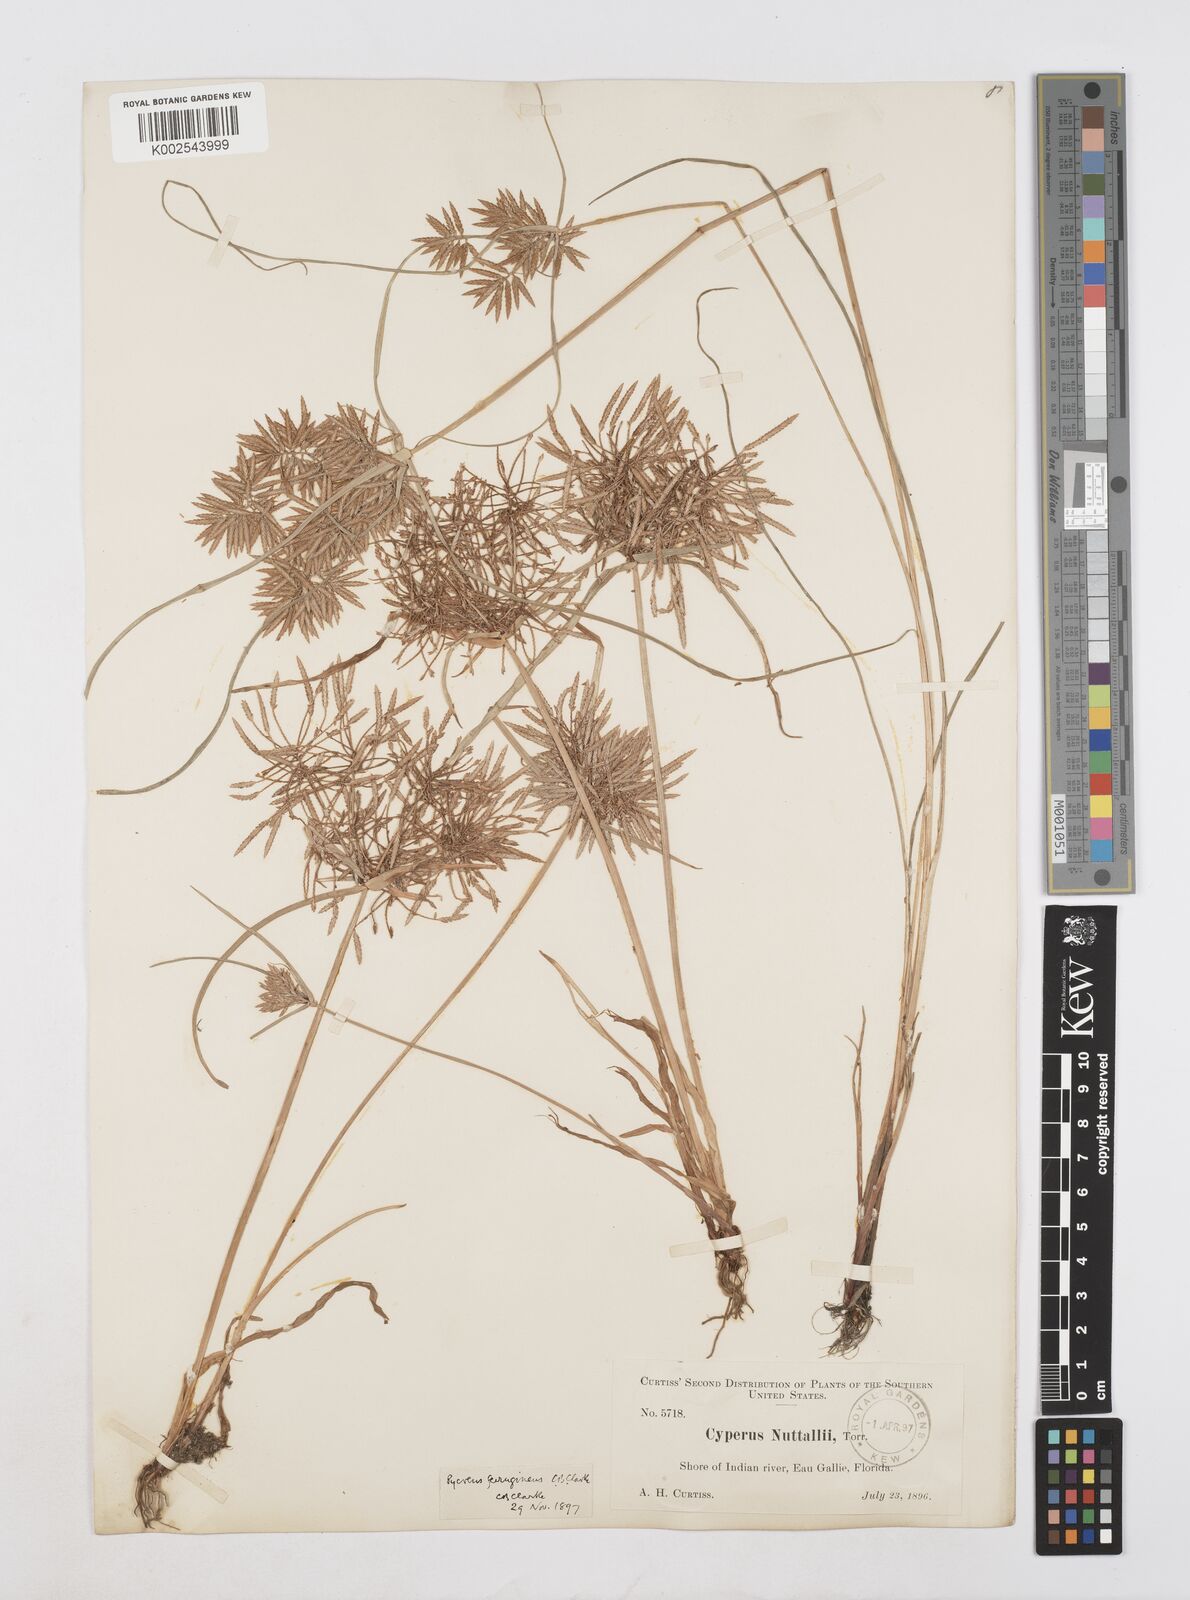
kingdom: Plantae
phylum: Tracheophyta
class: Liliopsida
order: Poales
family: Cyperaceae
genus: Cyperus
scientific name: Cyperus filicinus
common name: Fern flatsedge
